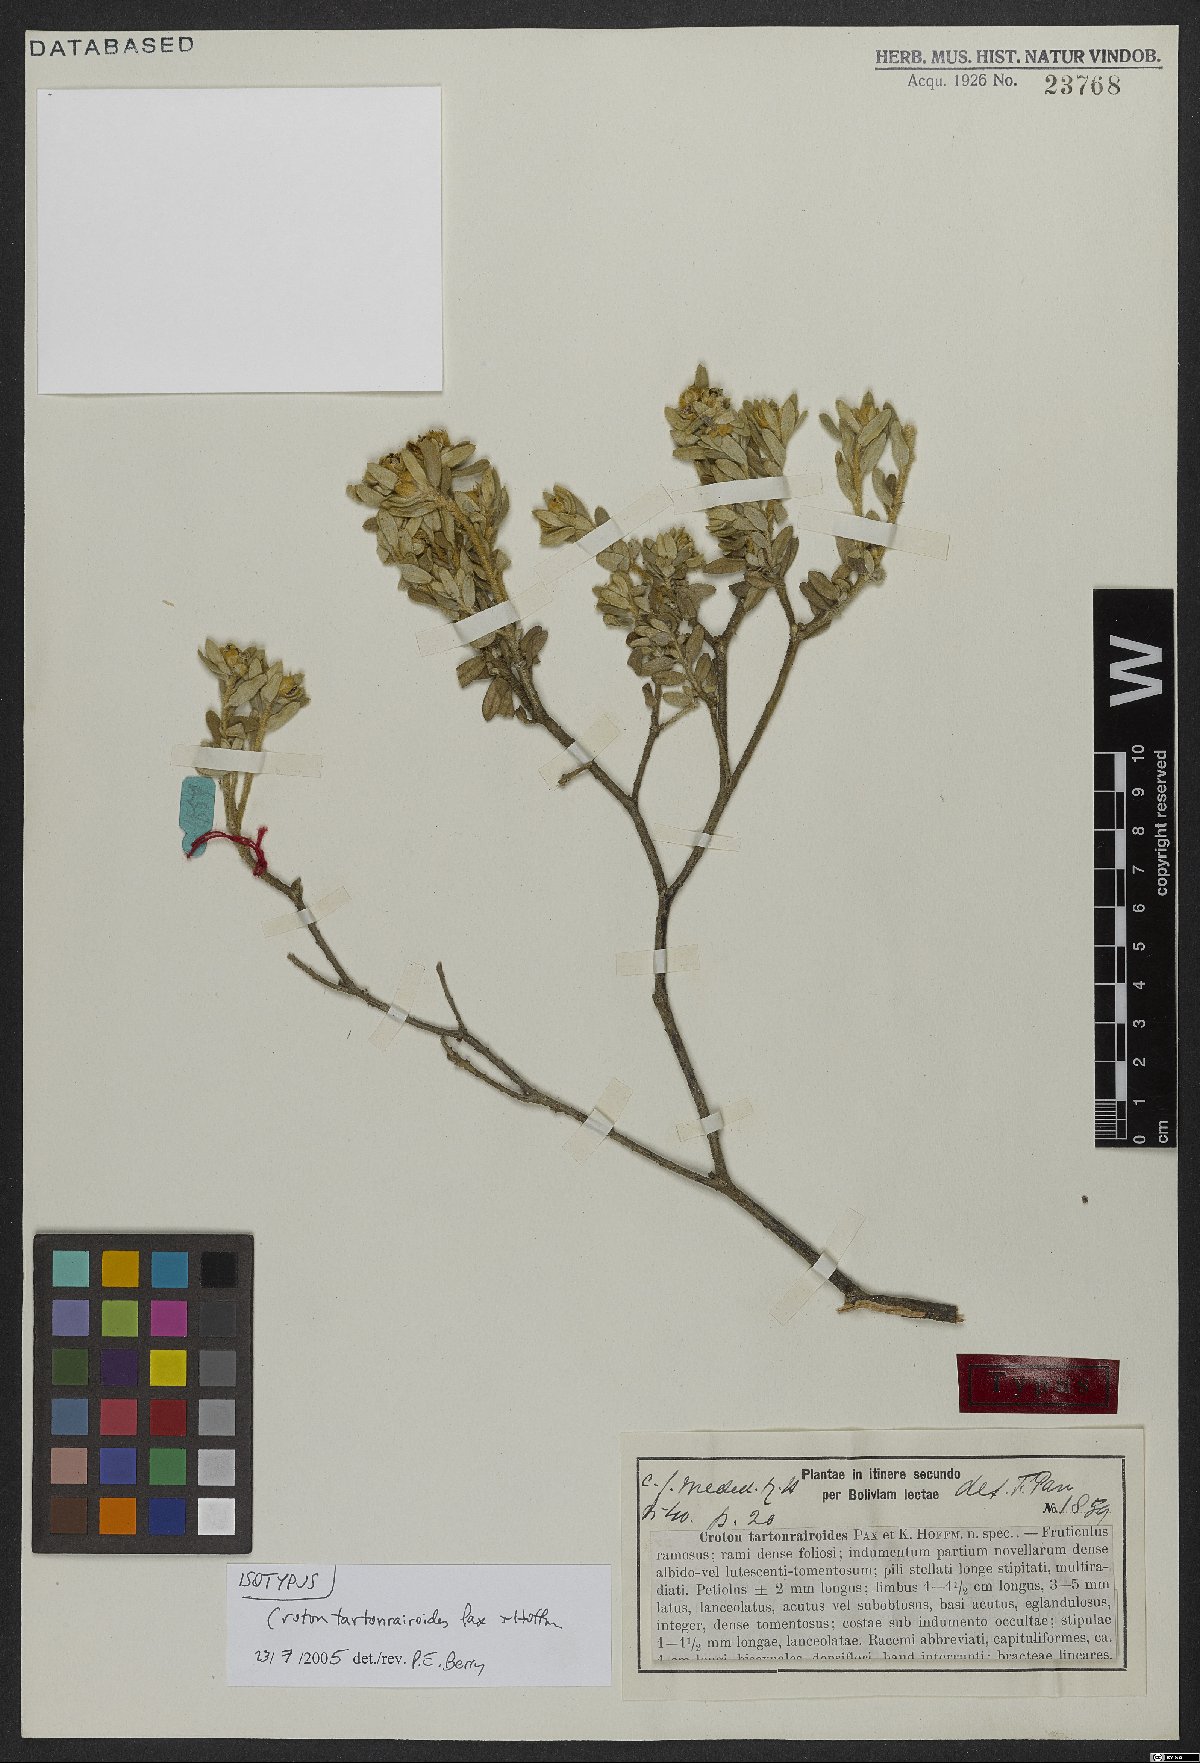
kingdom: Plantae
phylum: Tracheophyta
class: Magnoliopsida
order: Malpighiales
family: Euphorbiaceae
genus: Croton
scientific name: Croton tartonrairoides
